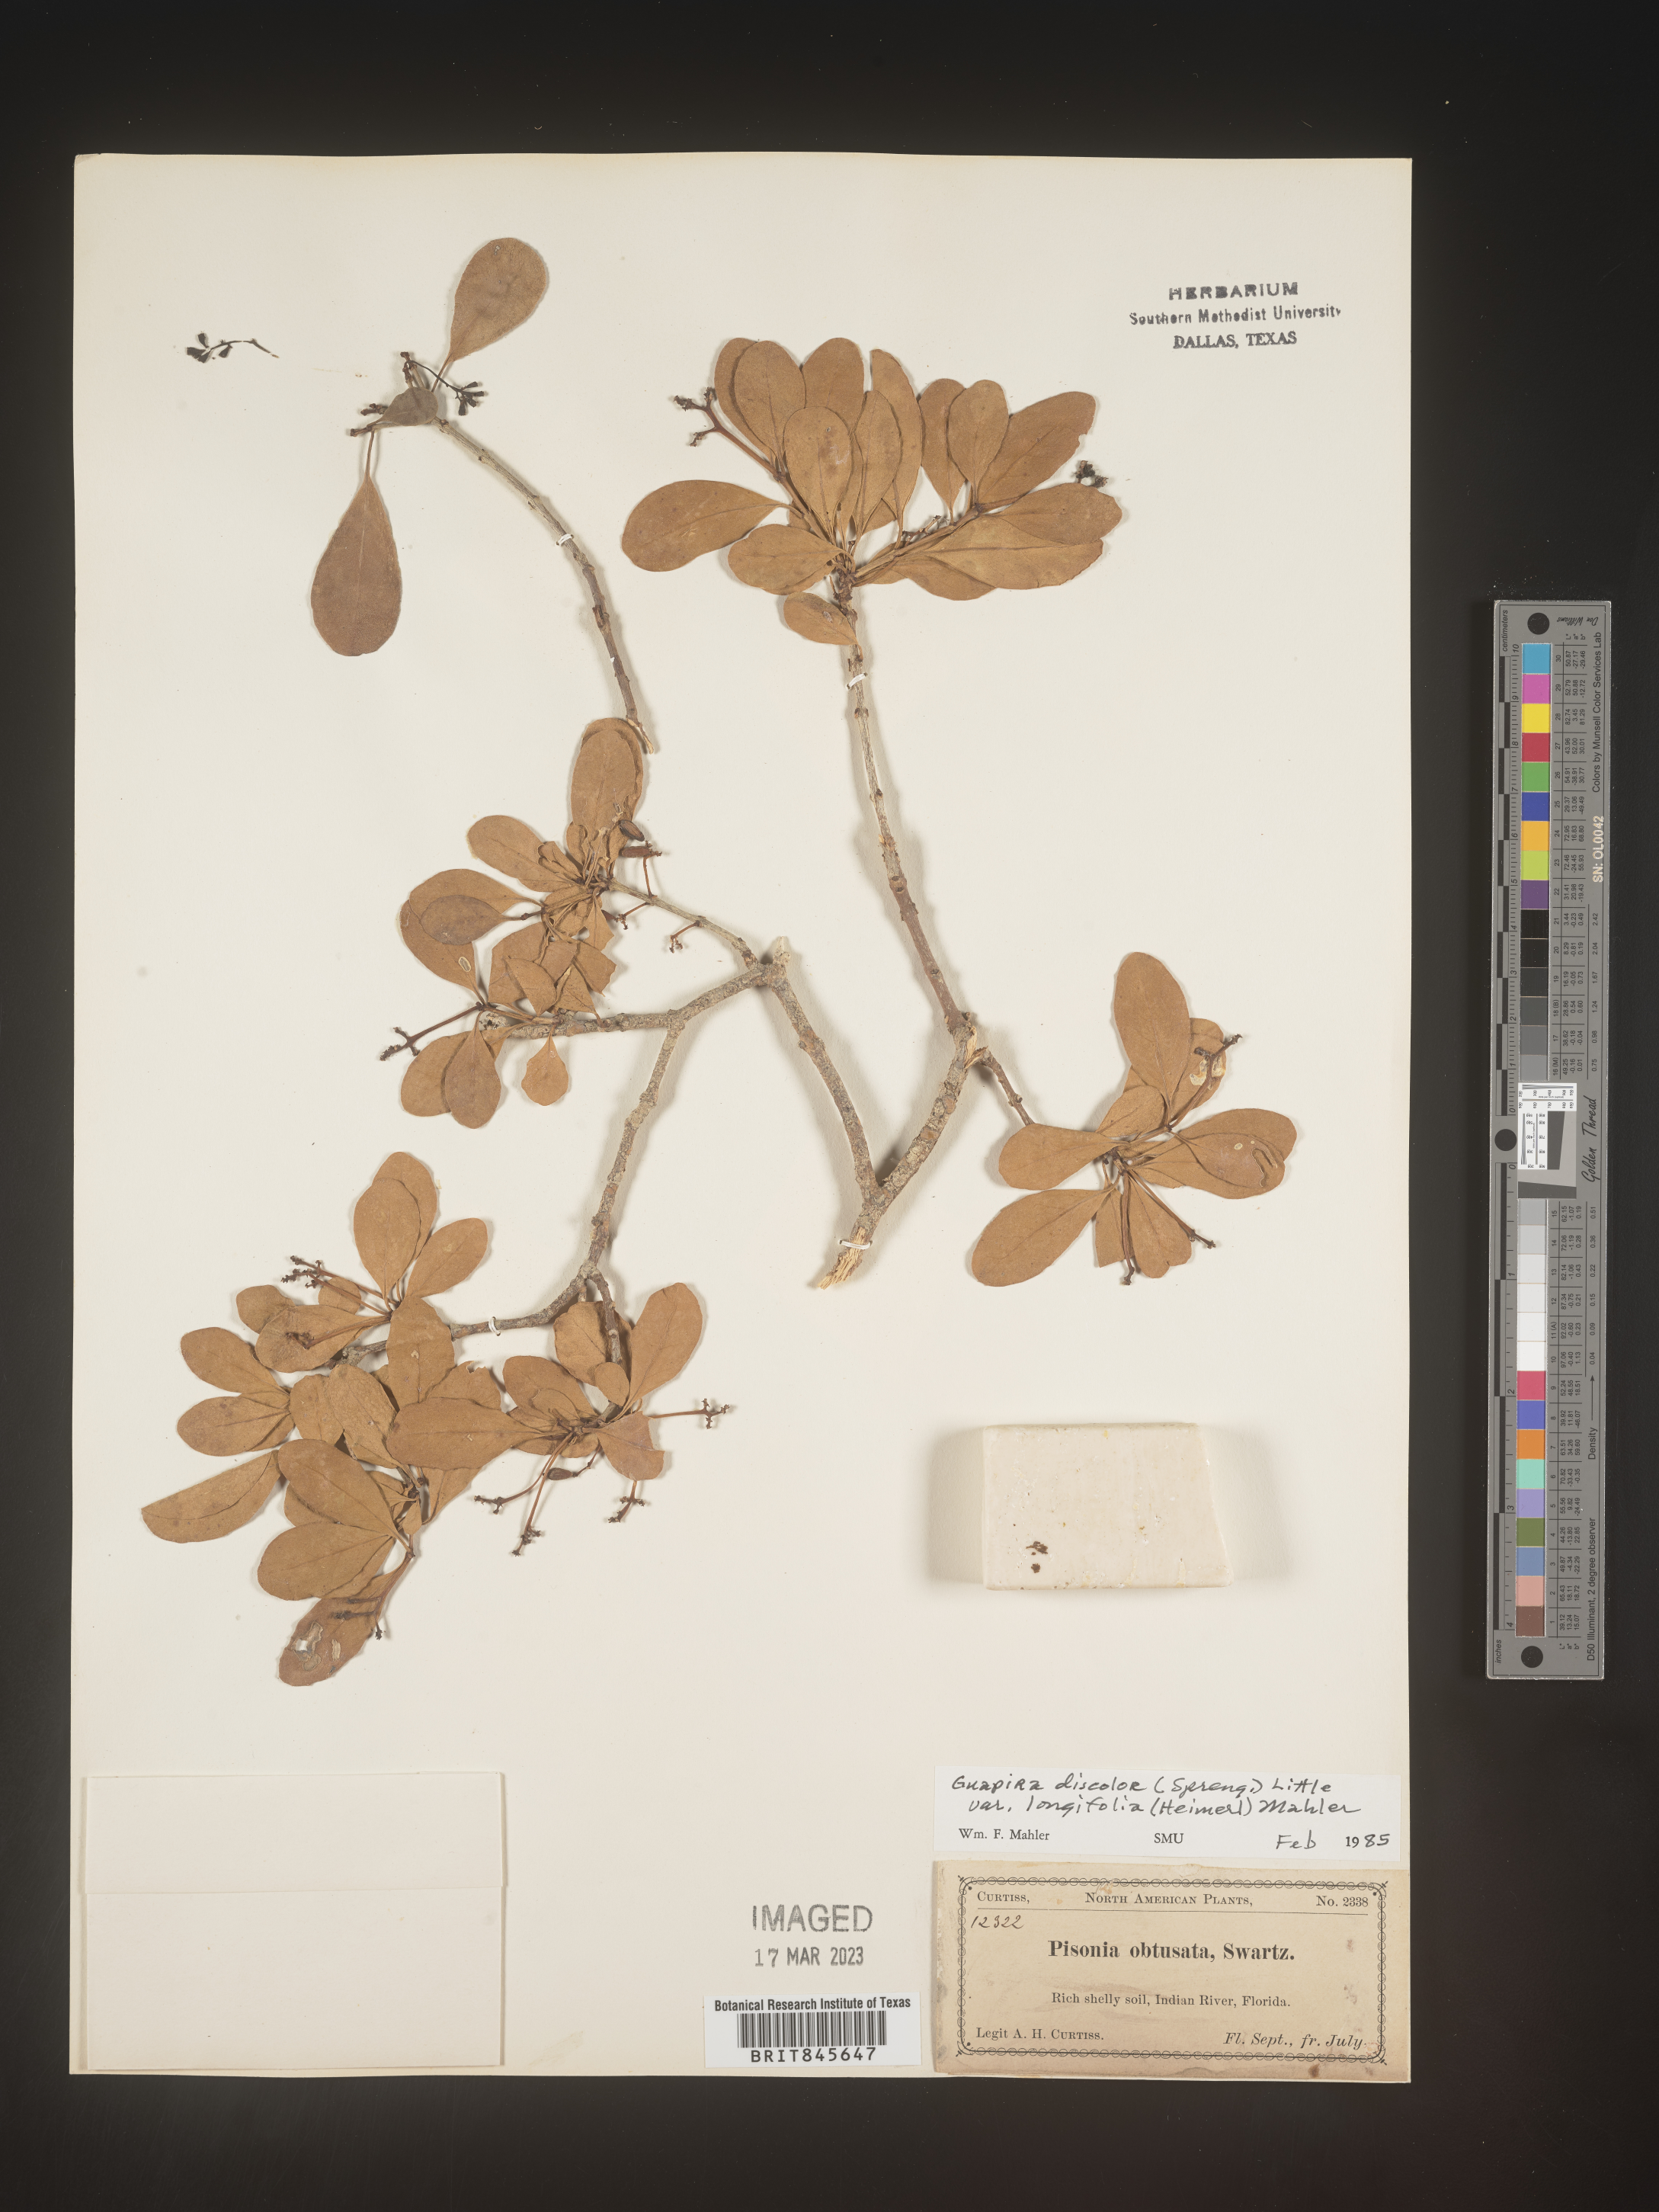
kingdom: Plantae
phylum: Tracheophyta
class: Magnoliopsida
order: Caryophyllales
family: Nyctaginaceae
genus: Guapira
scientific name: Guapira discolor
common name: Beeftree
